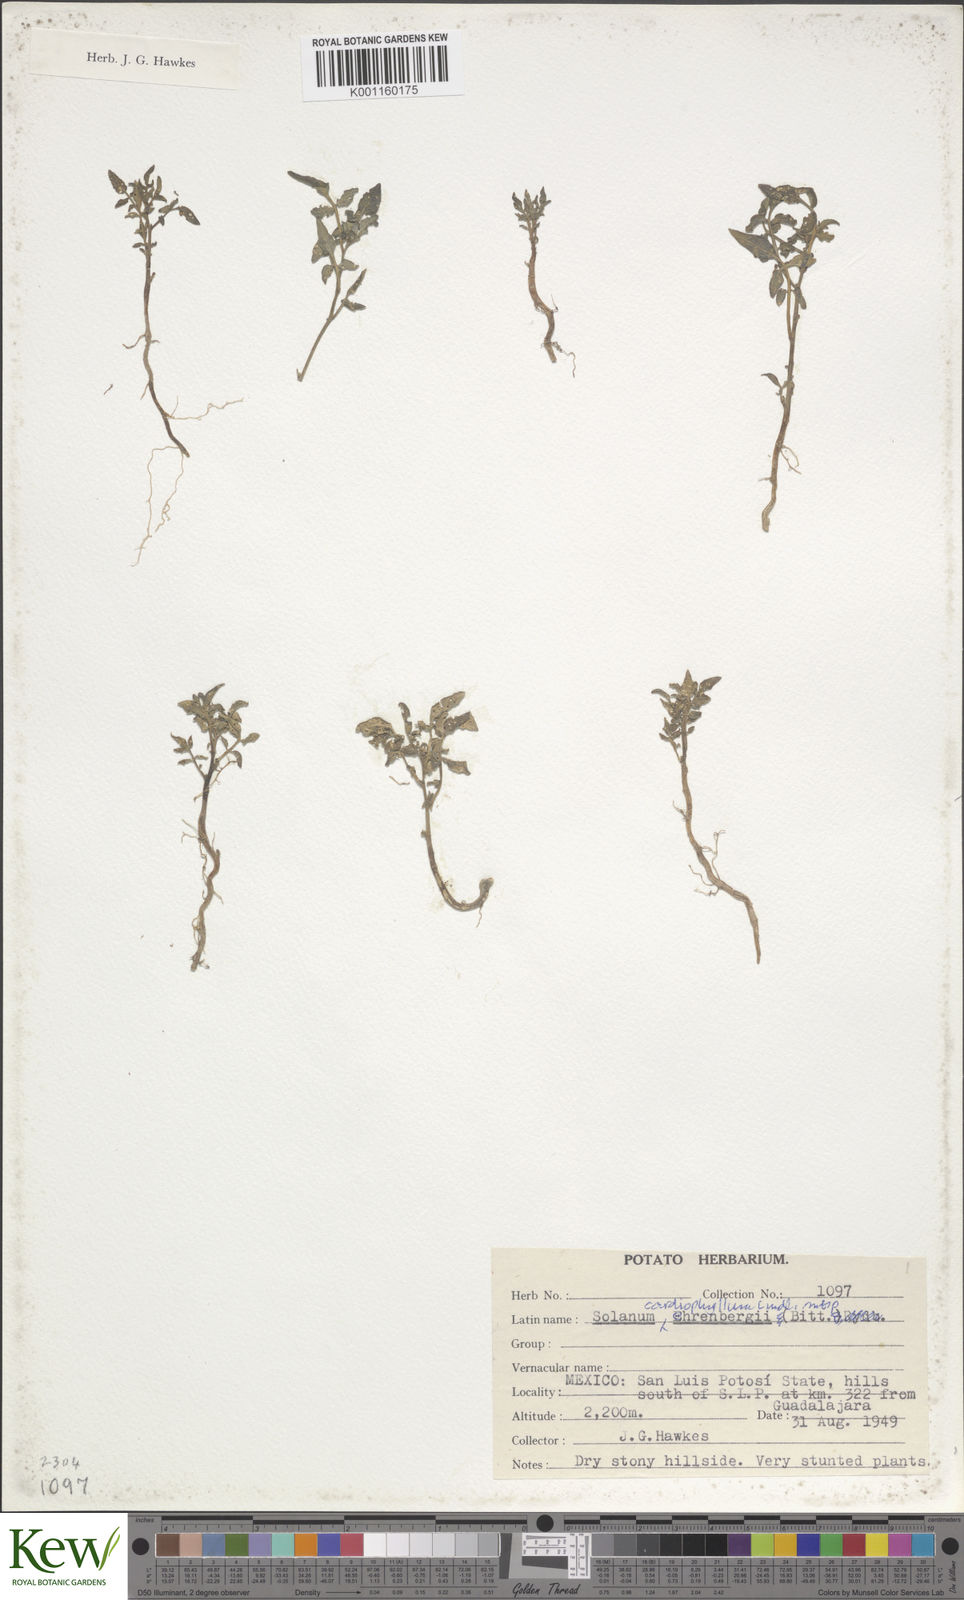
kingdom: Plantae
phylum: Tracheophyta
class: Magnoliopsida
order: Solanales
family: Solanaceae
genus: Solanum
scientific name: Solanum cardiophyllum
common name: Heartleaf horsenettle
